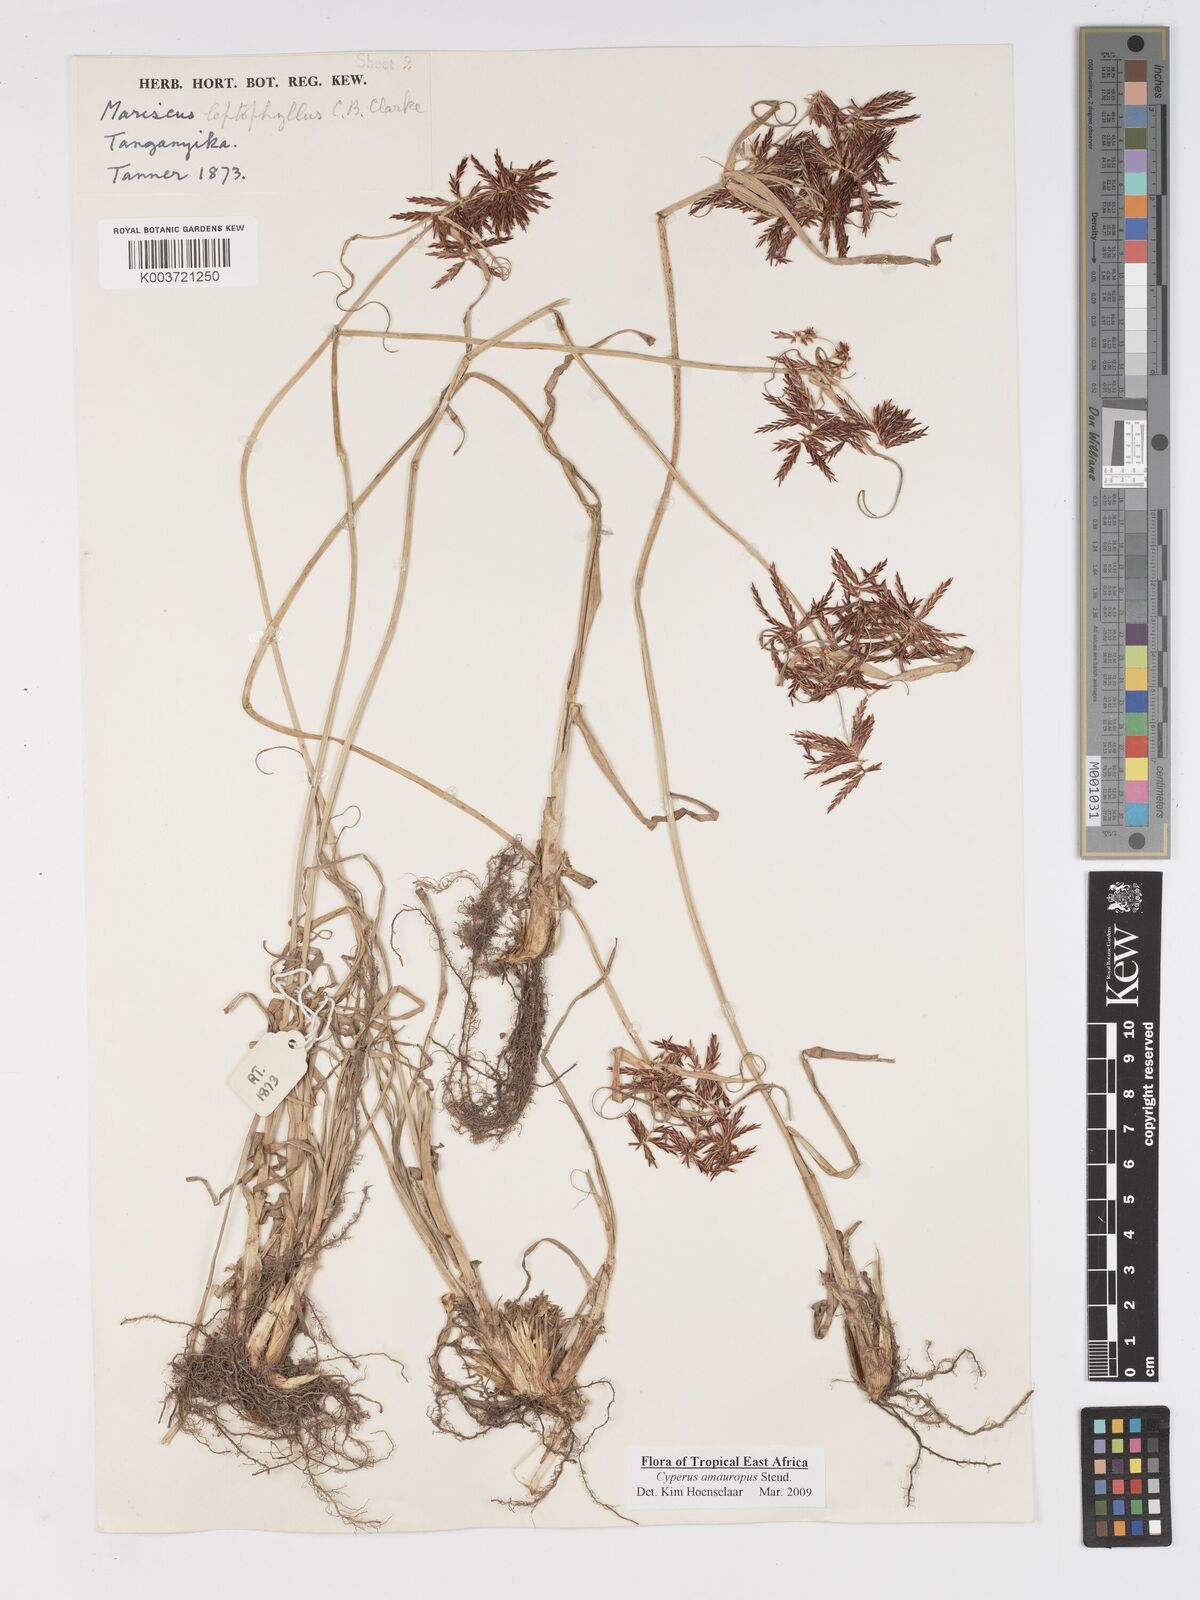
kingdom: Plantae
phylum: Tracheophyta
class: Liliopsida
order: Poales
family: Cyperaceae
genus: Cyperus
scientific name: Cyperus amauropus
